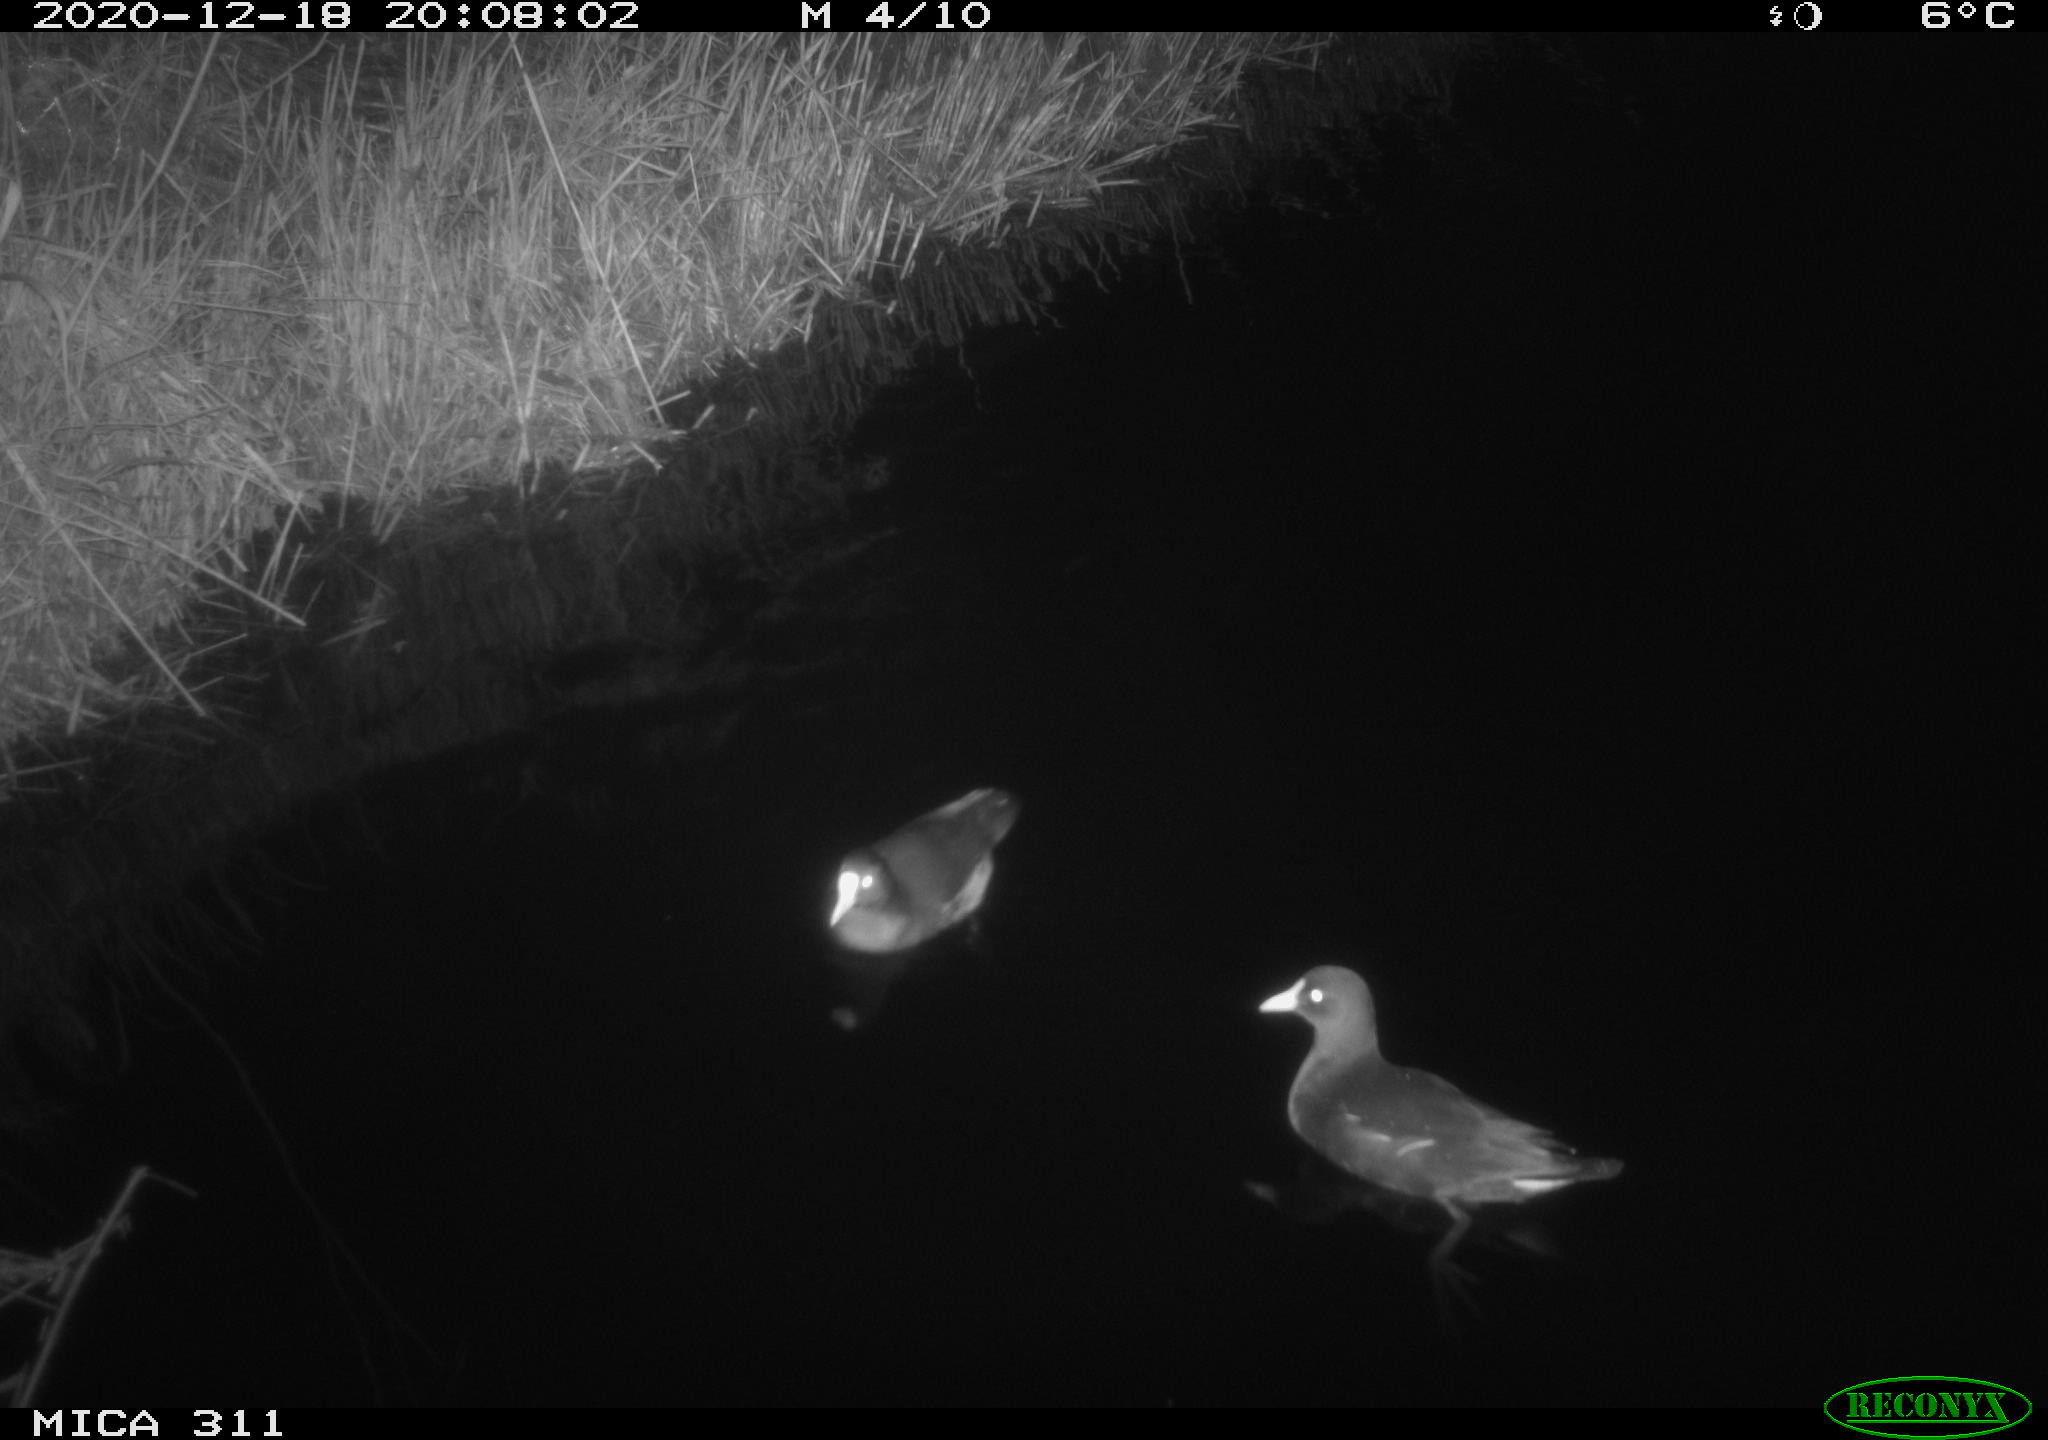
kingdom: Animalia
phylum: Chordata
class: Aves
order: Gruiformes
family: Rallidae
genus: Gallinula
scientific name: Gallinula chloropus
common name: Common moorhen
